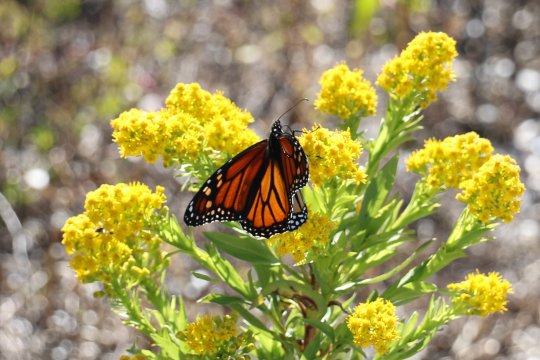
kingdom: Animalia
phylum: Arthropoda
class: Insecta
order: Lepidoptera
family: Nymphalidae
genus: Danaus
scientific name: Danaus plexippus
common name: Monarch
